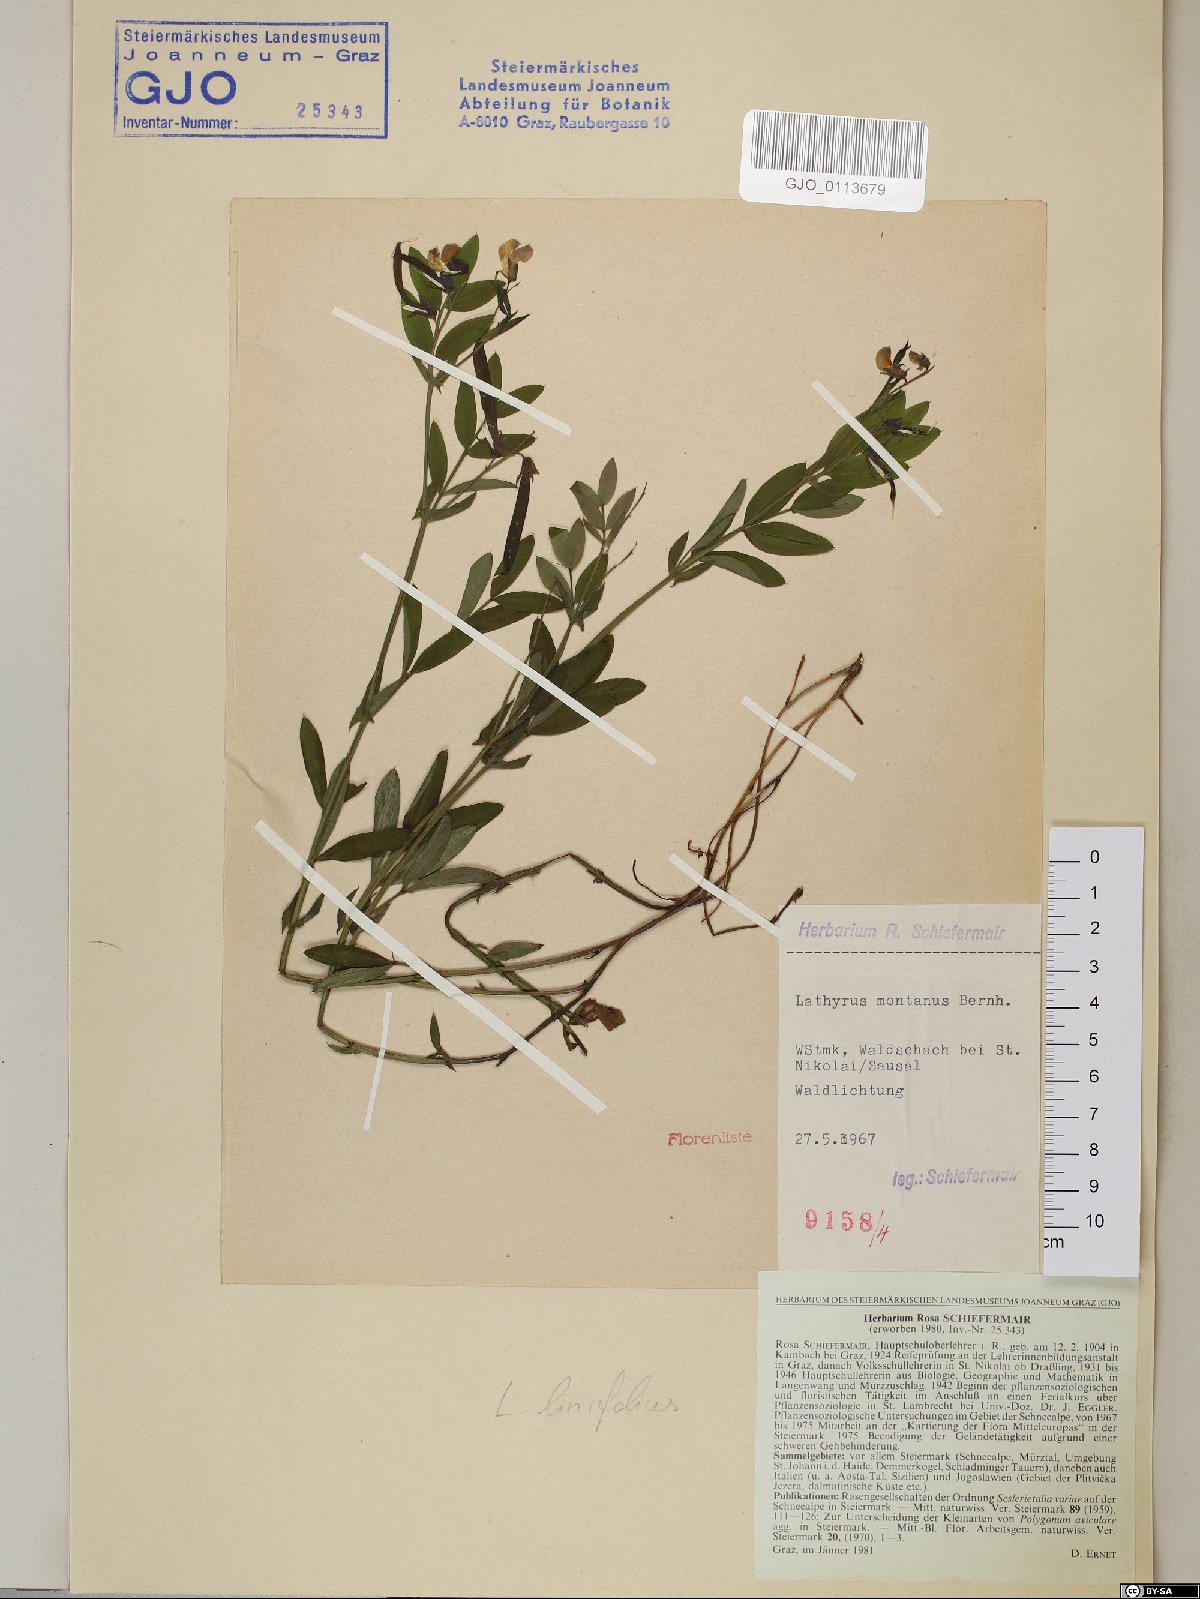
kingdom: Plantae
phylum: Tracheophyta
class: Magnoliopsida
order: Fabales
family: Fabaceae
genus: Lathyrus
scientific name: Lathyrus linifolius
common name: Bitter-vetch
